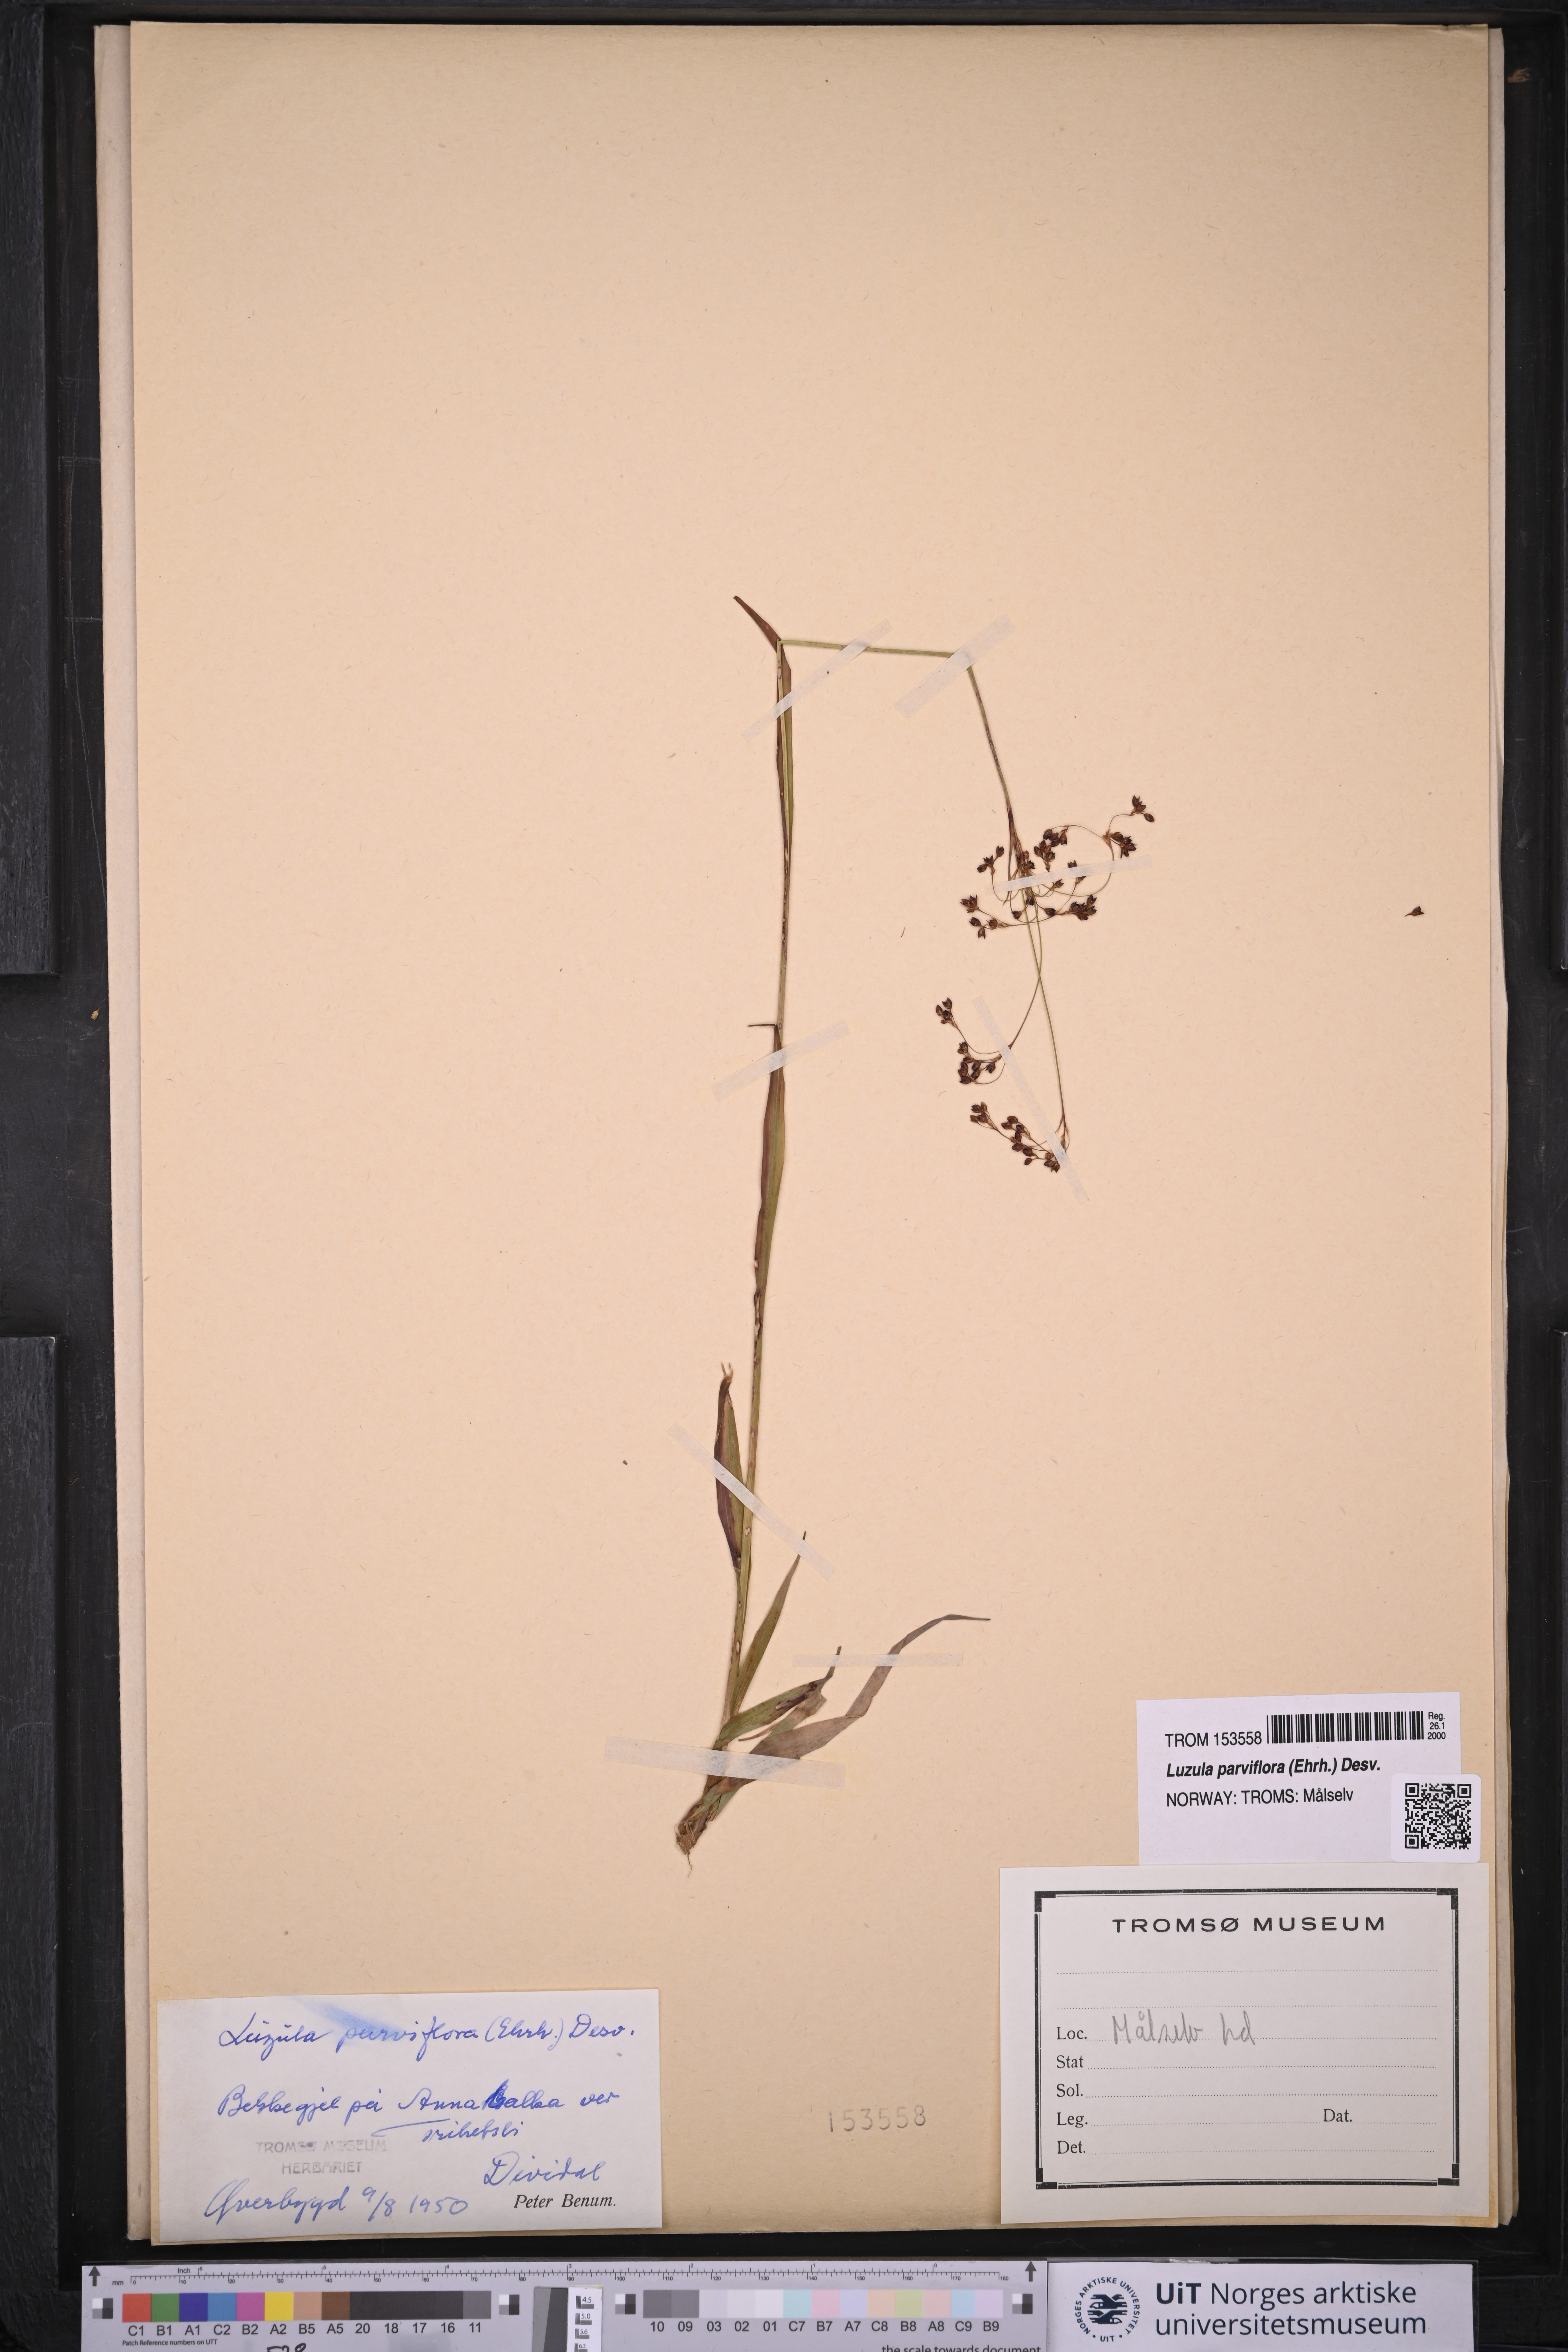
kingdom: Plantae
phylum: Tracheophyta
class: Liliopsida
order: Poales
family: Juncaceae
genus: Luzula
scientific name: Luzula parviflora
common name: Millet woodrush
